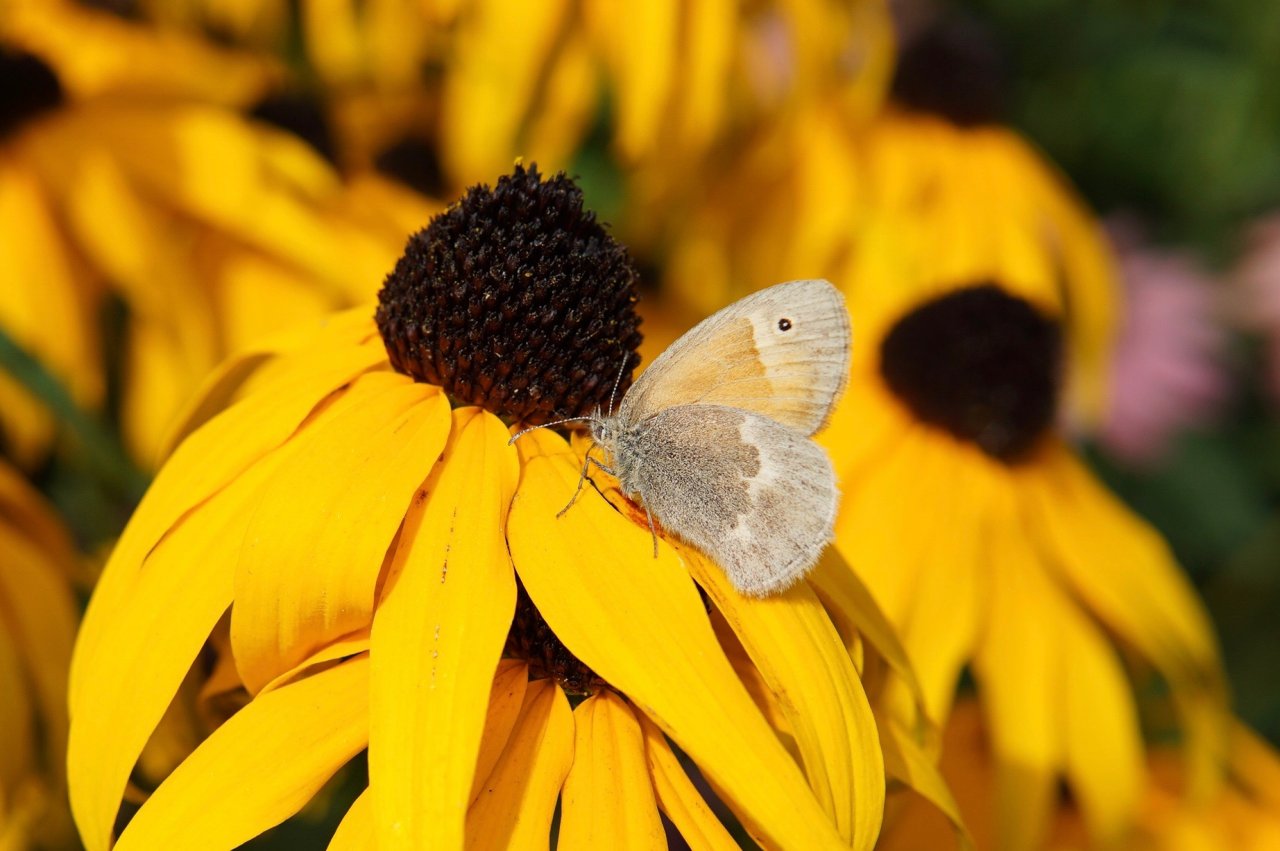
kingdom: Animalia
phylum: Arthropoda
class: Insecta
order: Lepidoptera
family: Nymphalidae
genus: Coenonympha
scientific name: Coenonympha tullia
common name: Large Heath
